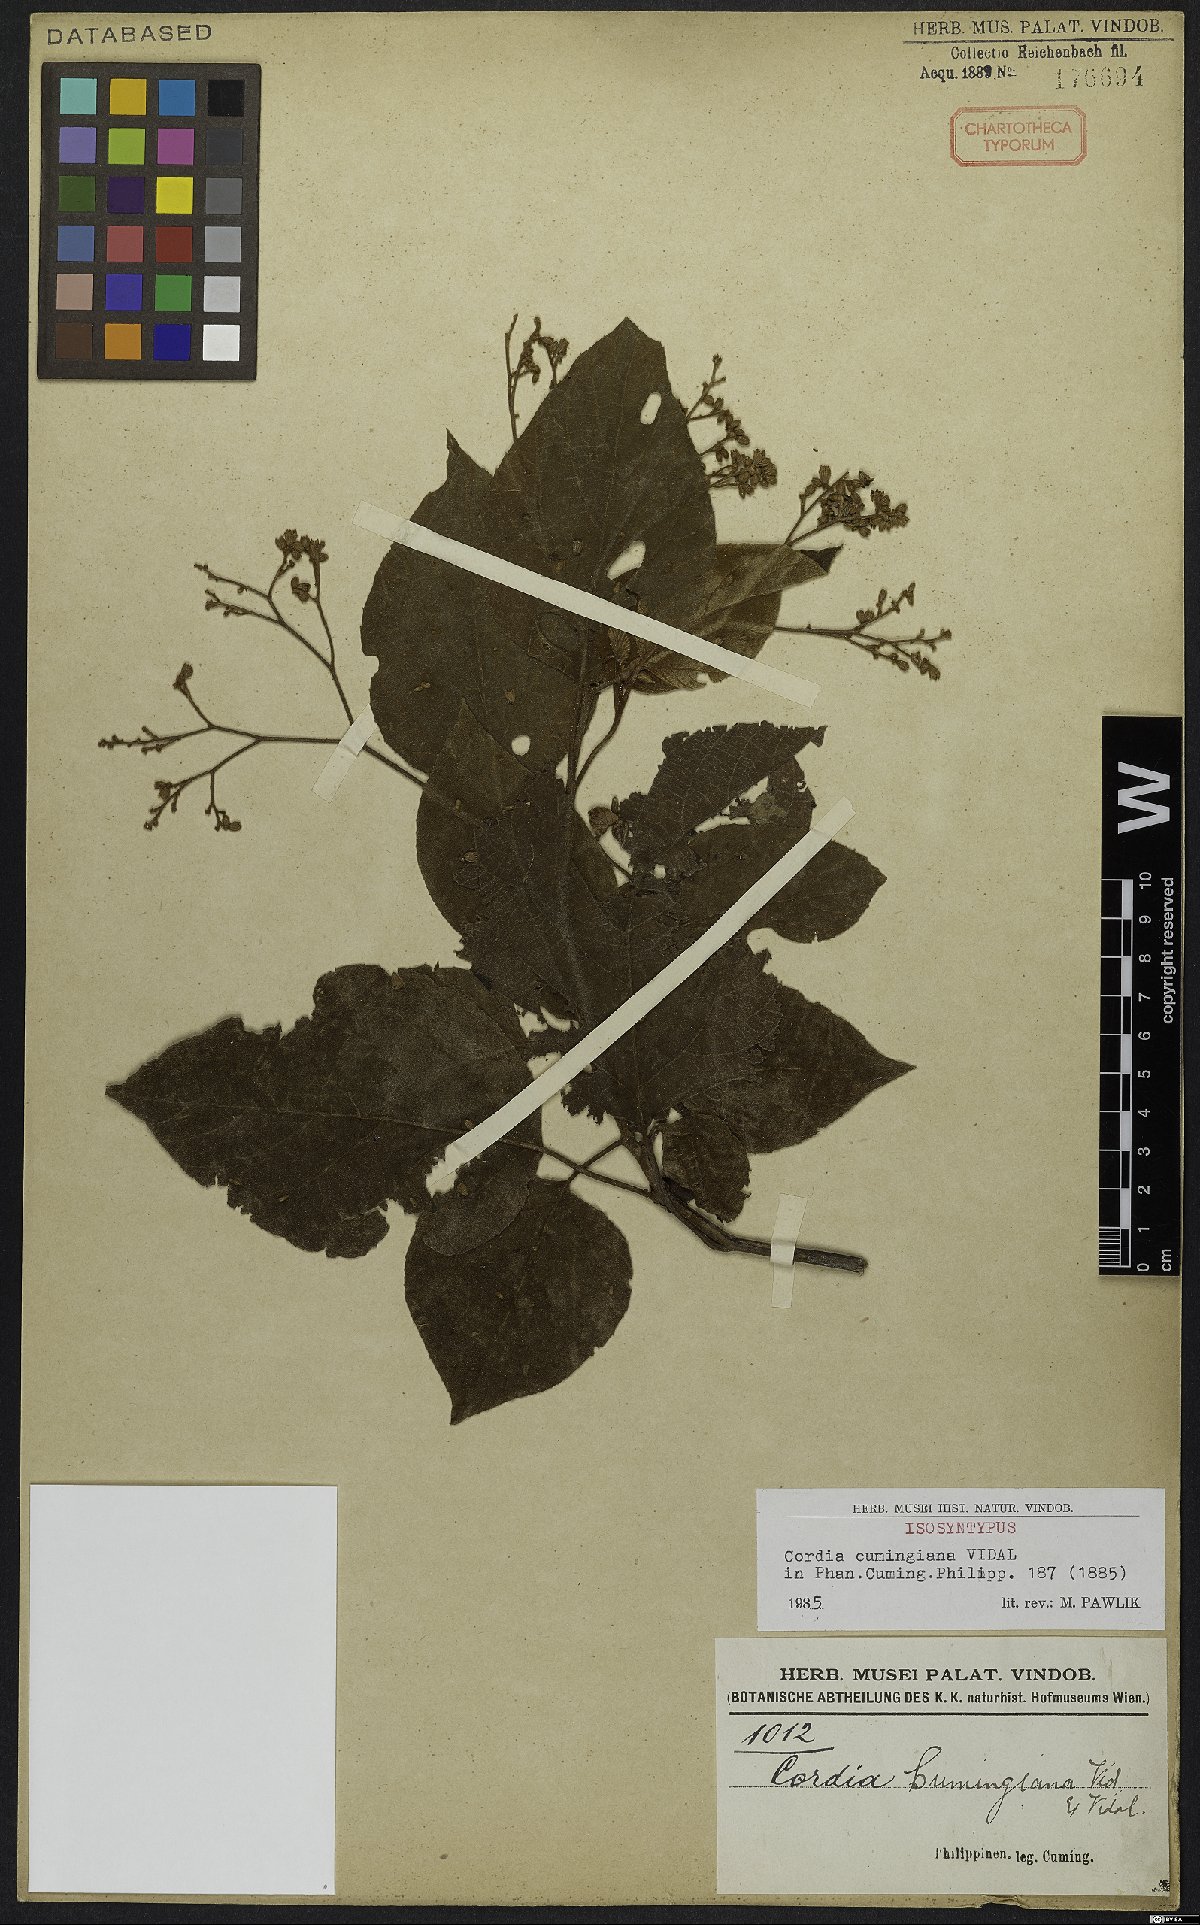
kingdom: Plantae
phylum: Tracheophyta
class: Magnoliopsida
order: Boraginales
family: Cordiaceae
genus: Cordia
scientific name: Cordia aspera
